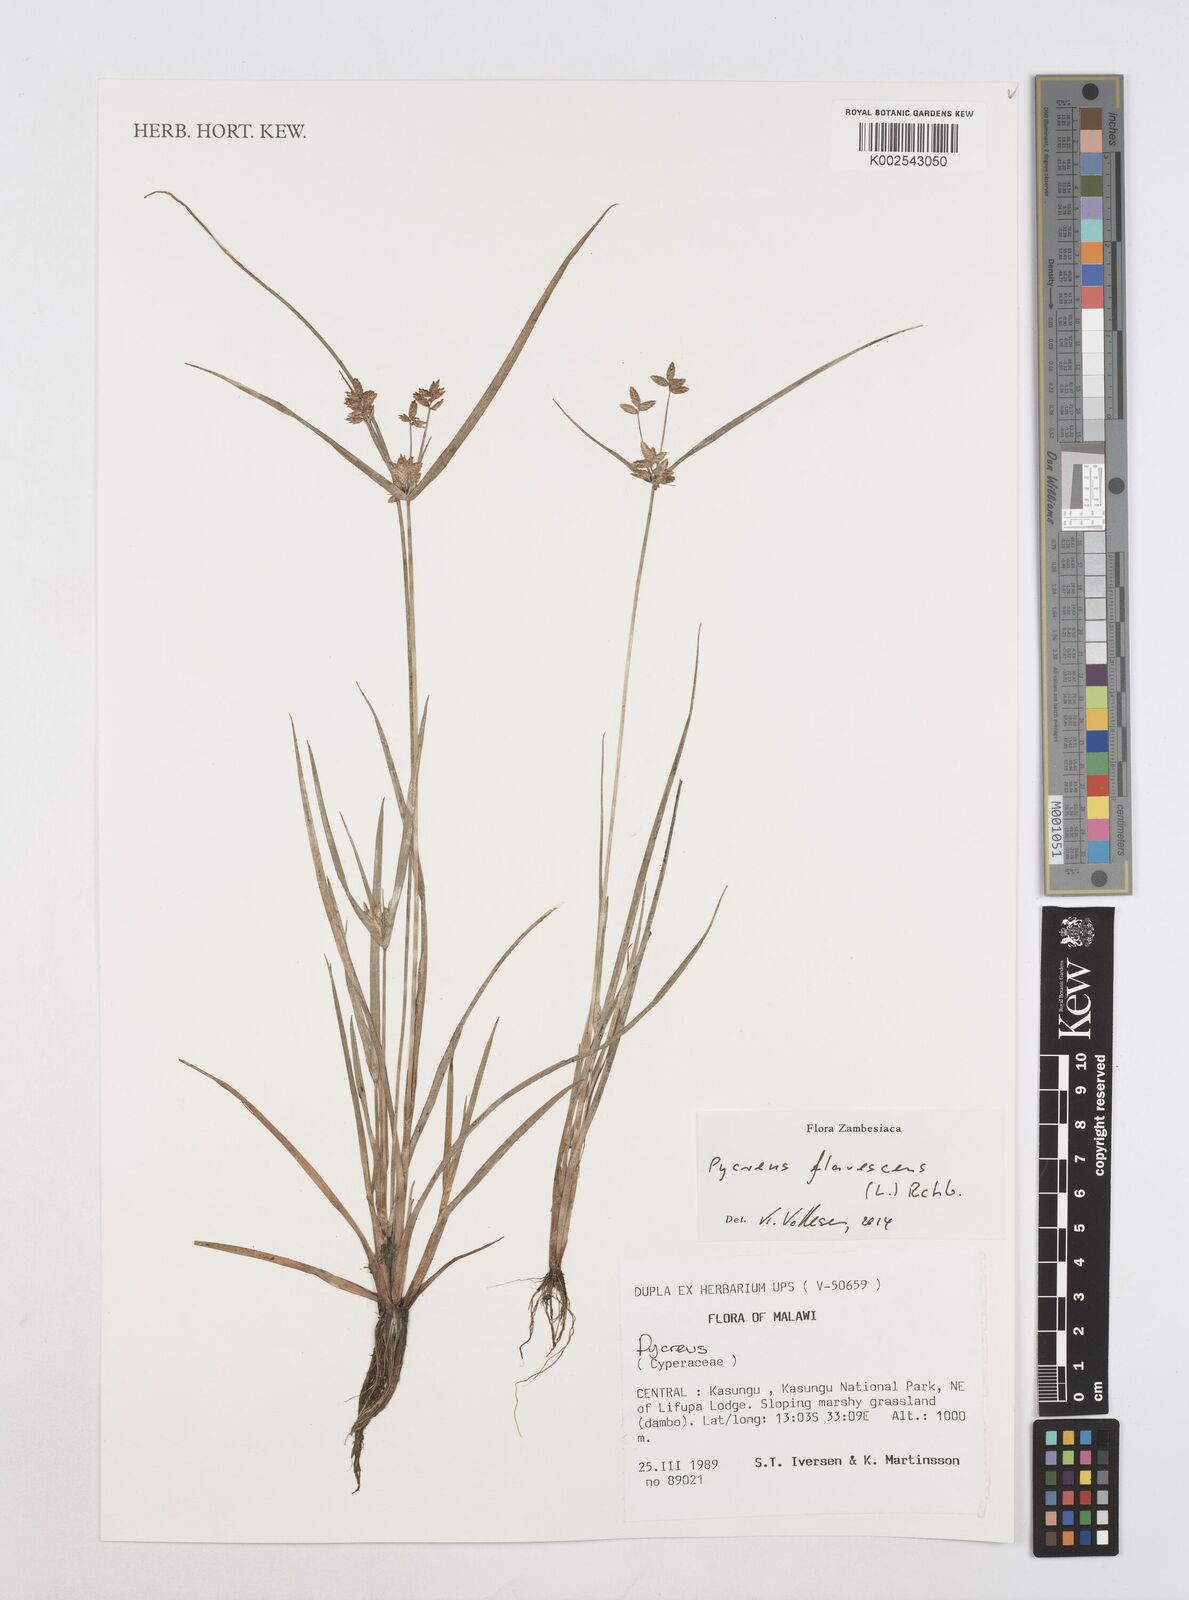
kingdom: Plantae
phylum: Tracheophyta
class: Liliopsida
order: Poales
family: Cyperaceae
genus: Cyperus
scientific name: Cyperus flavescens
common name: Yellow galingale
